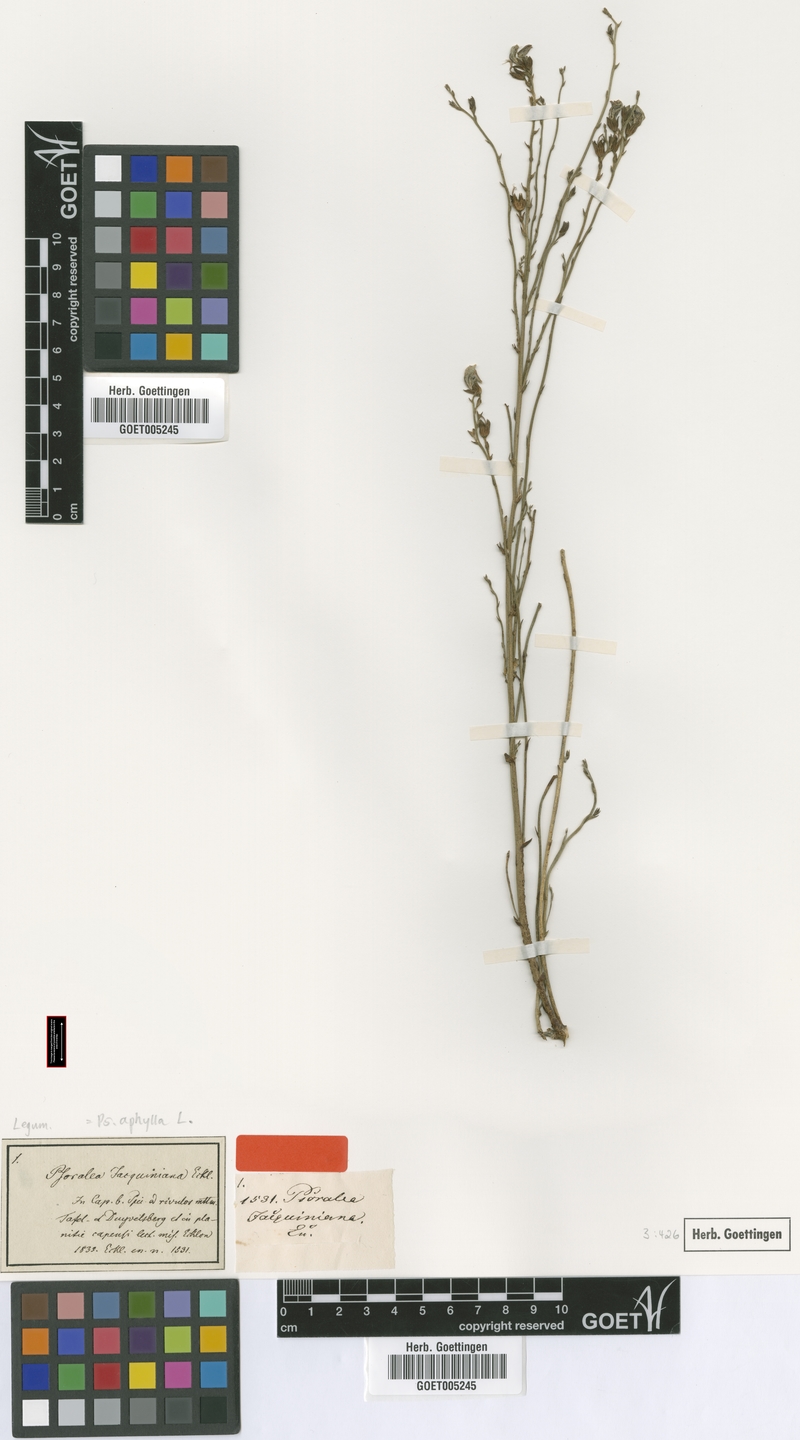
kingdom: Plantae
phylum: Tracheophyta
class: Magnoliopsida
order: Fabales
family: Fabaceae
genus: Psoralea
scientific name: Psoralea aphylla
